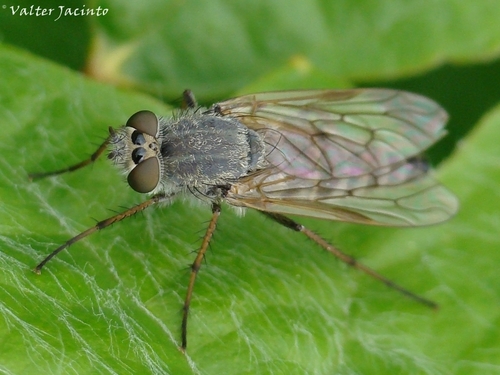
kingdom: Animalia
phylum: Arthropoda
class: Insecta
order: Diptera
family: Therevidae
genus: Thereva
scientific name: Thereva unica
